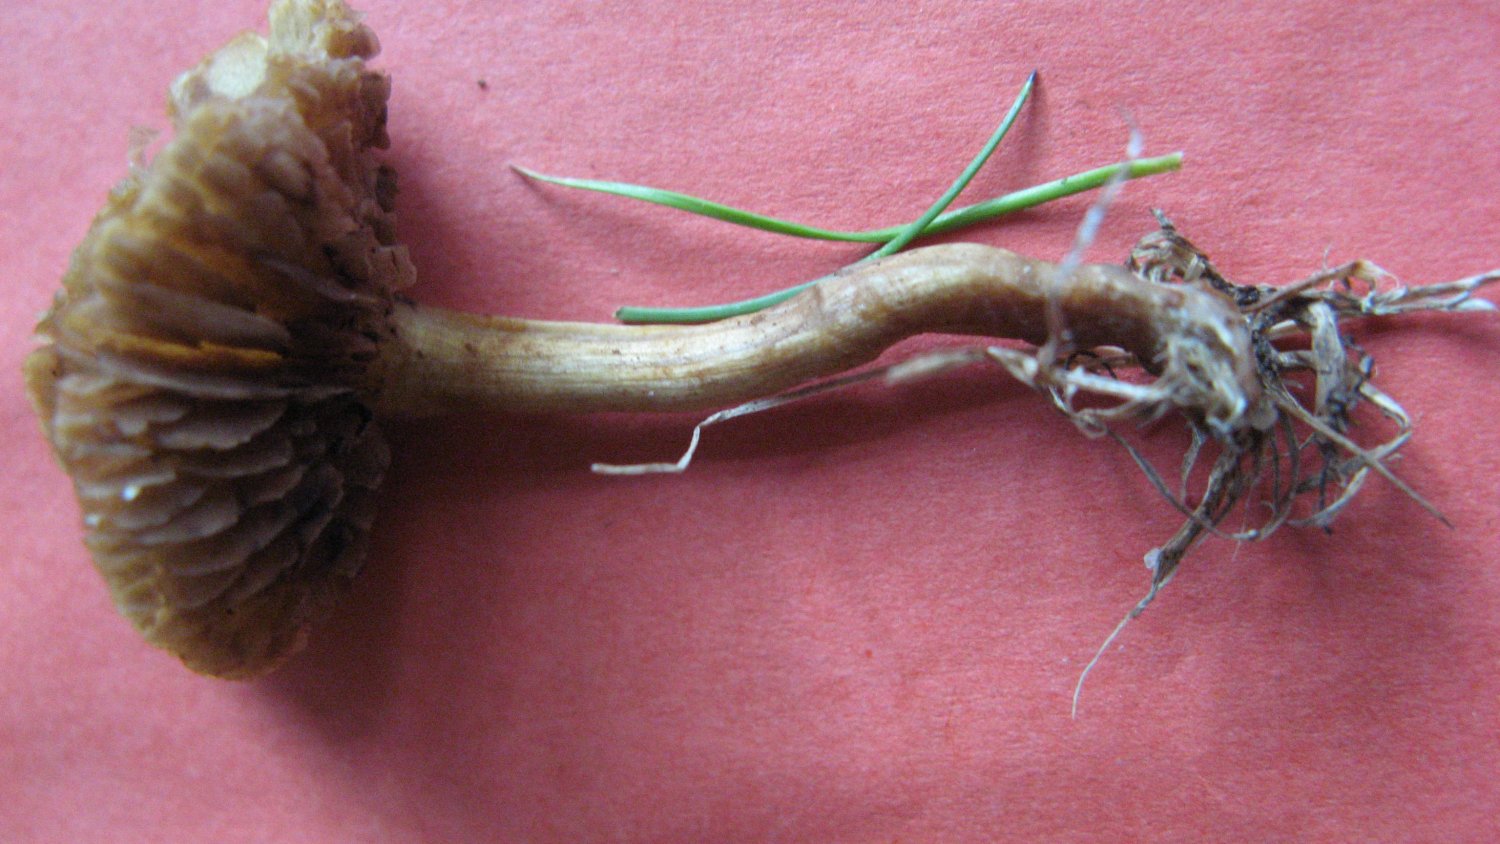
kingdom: Fungi
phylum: Basidiomycota
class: Agaricomycetes
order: Agaricales
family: Strophariaceae
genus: Agrocybe
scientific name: Agrocybe pediades
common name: almindelig agerhat
